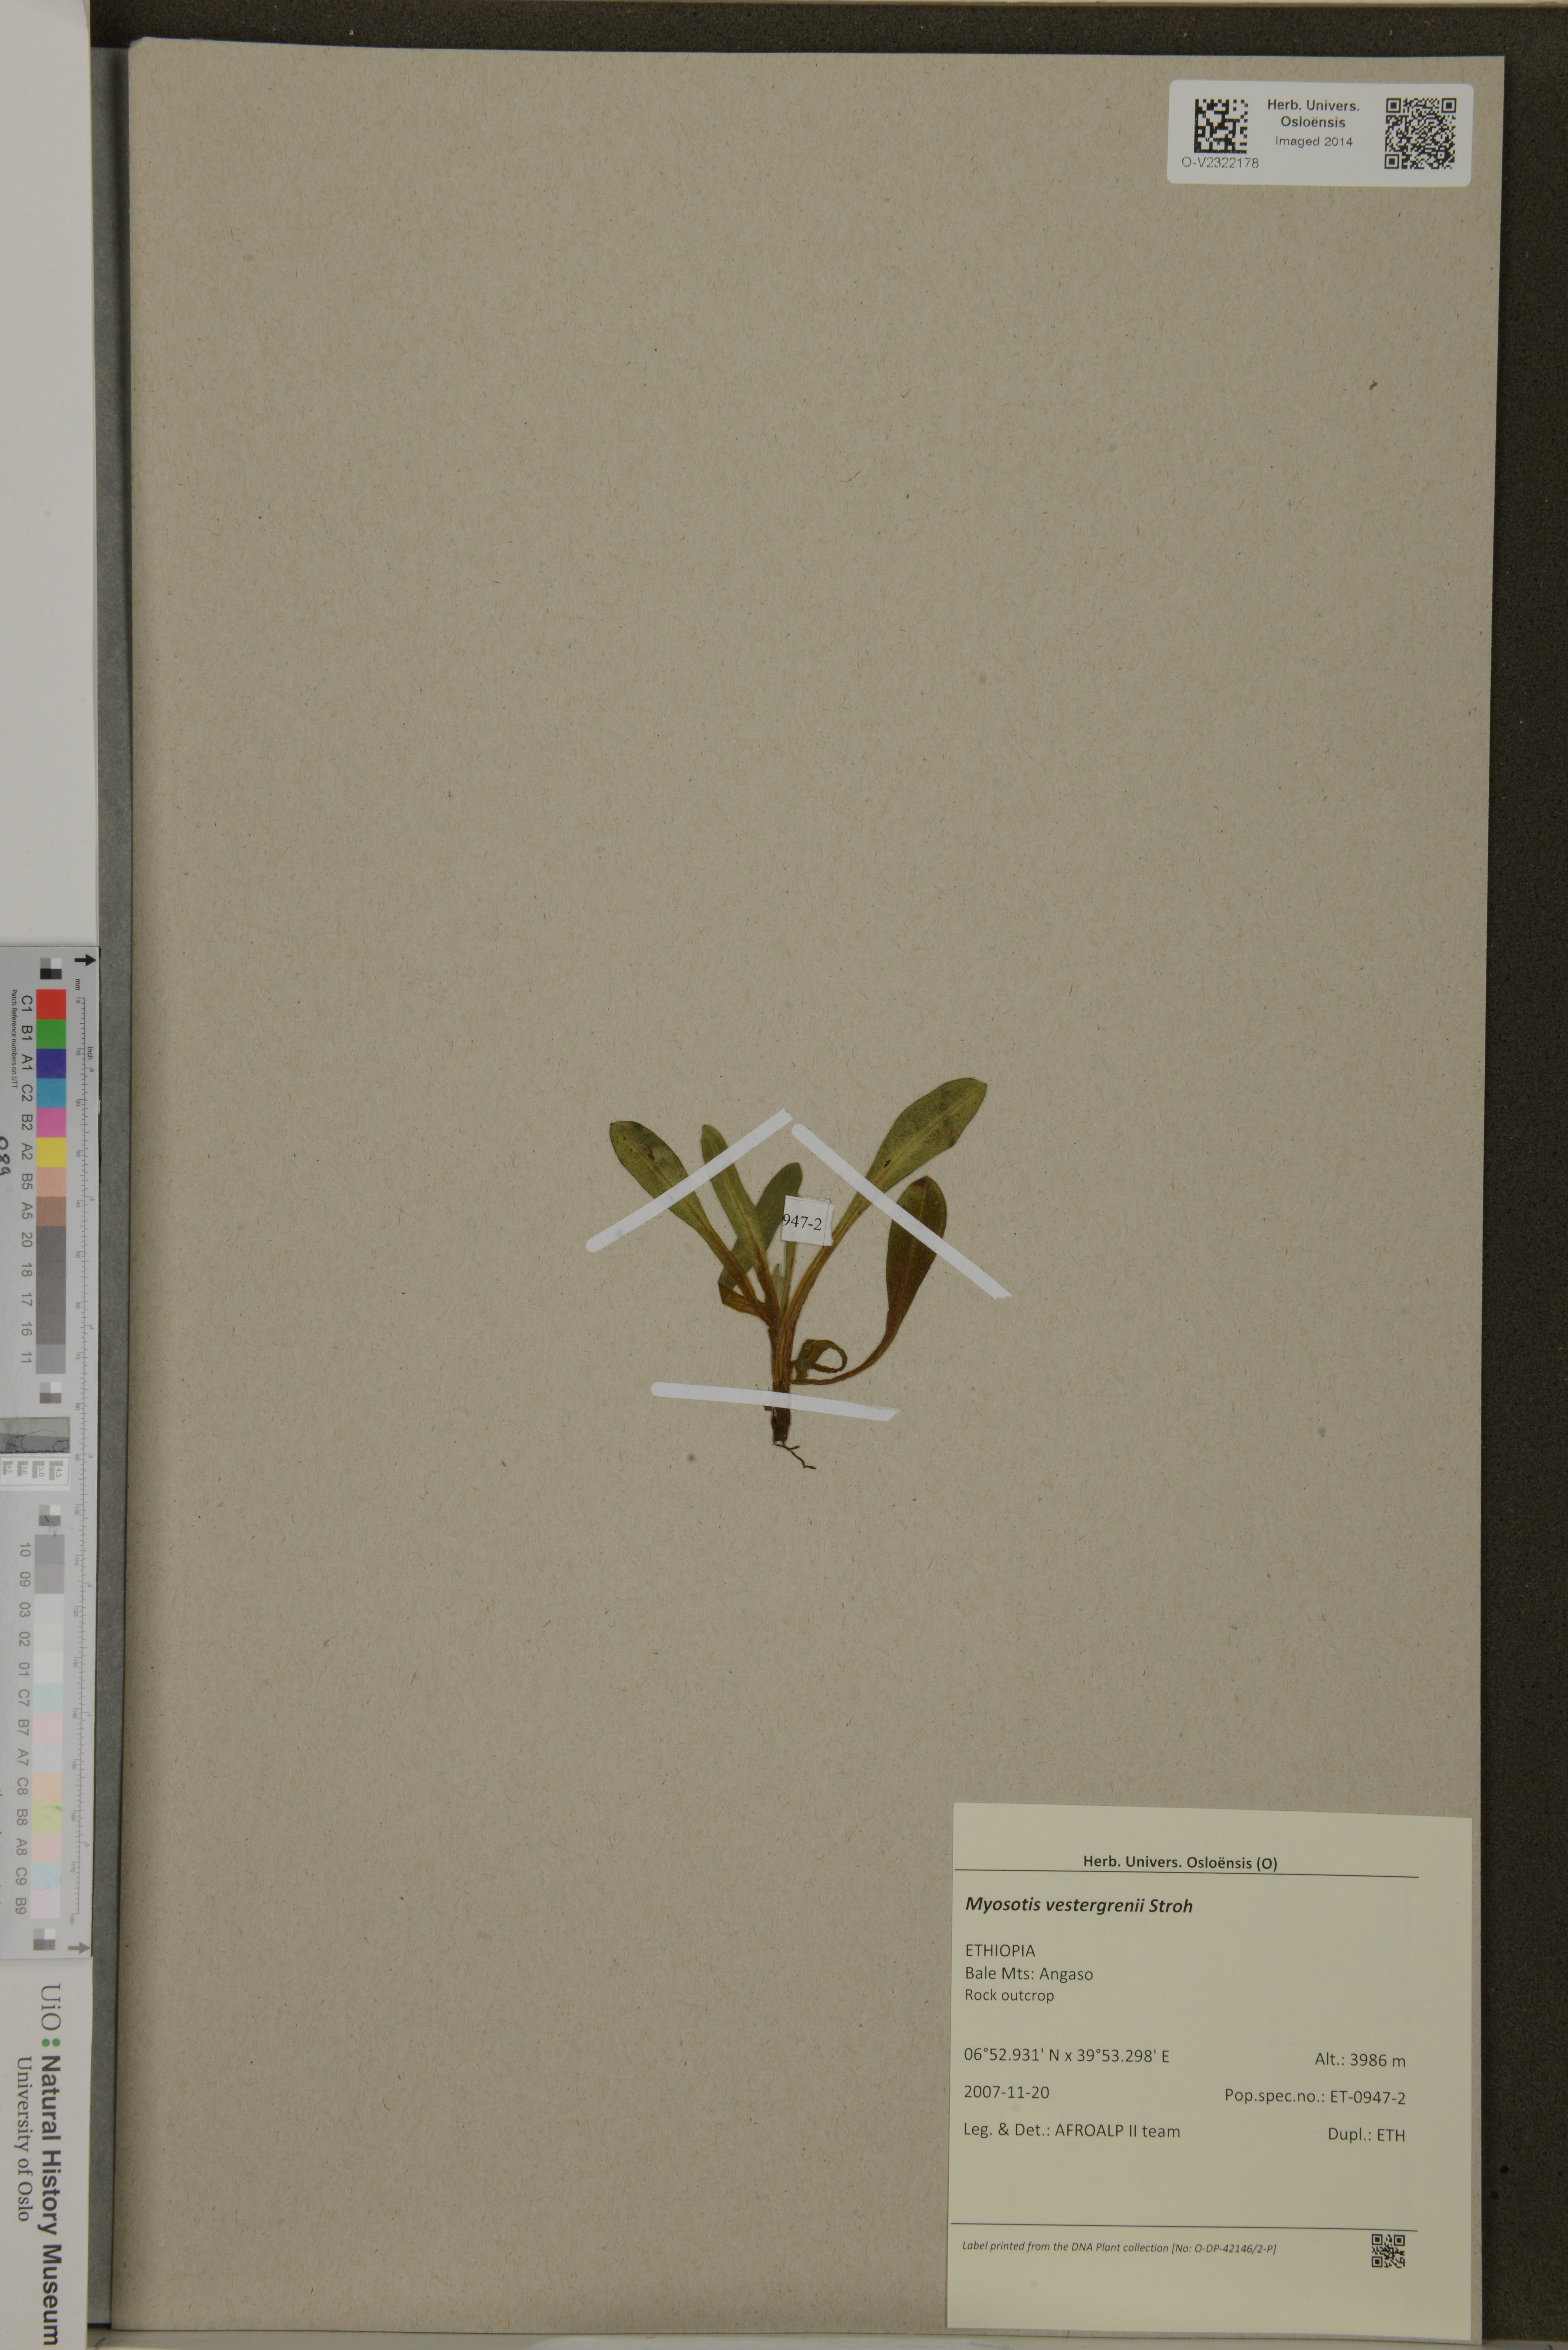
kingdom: Plantae
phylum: Tracheophyta
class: Magnoliopsida
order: Boraginales
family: Boraginaceae
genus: Myosotis
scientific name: Myosotis vestergrenii
